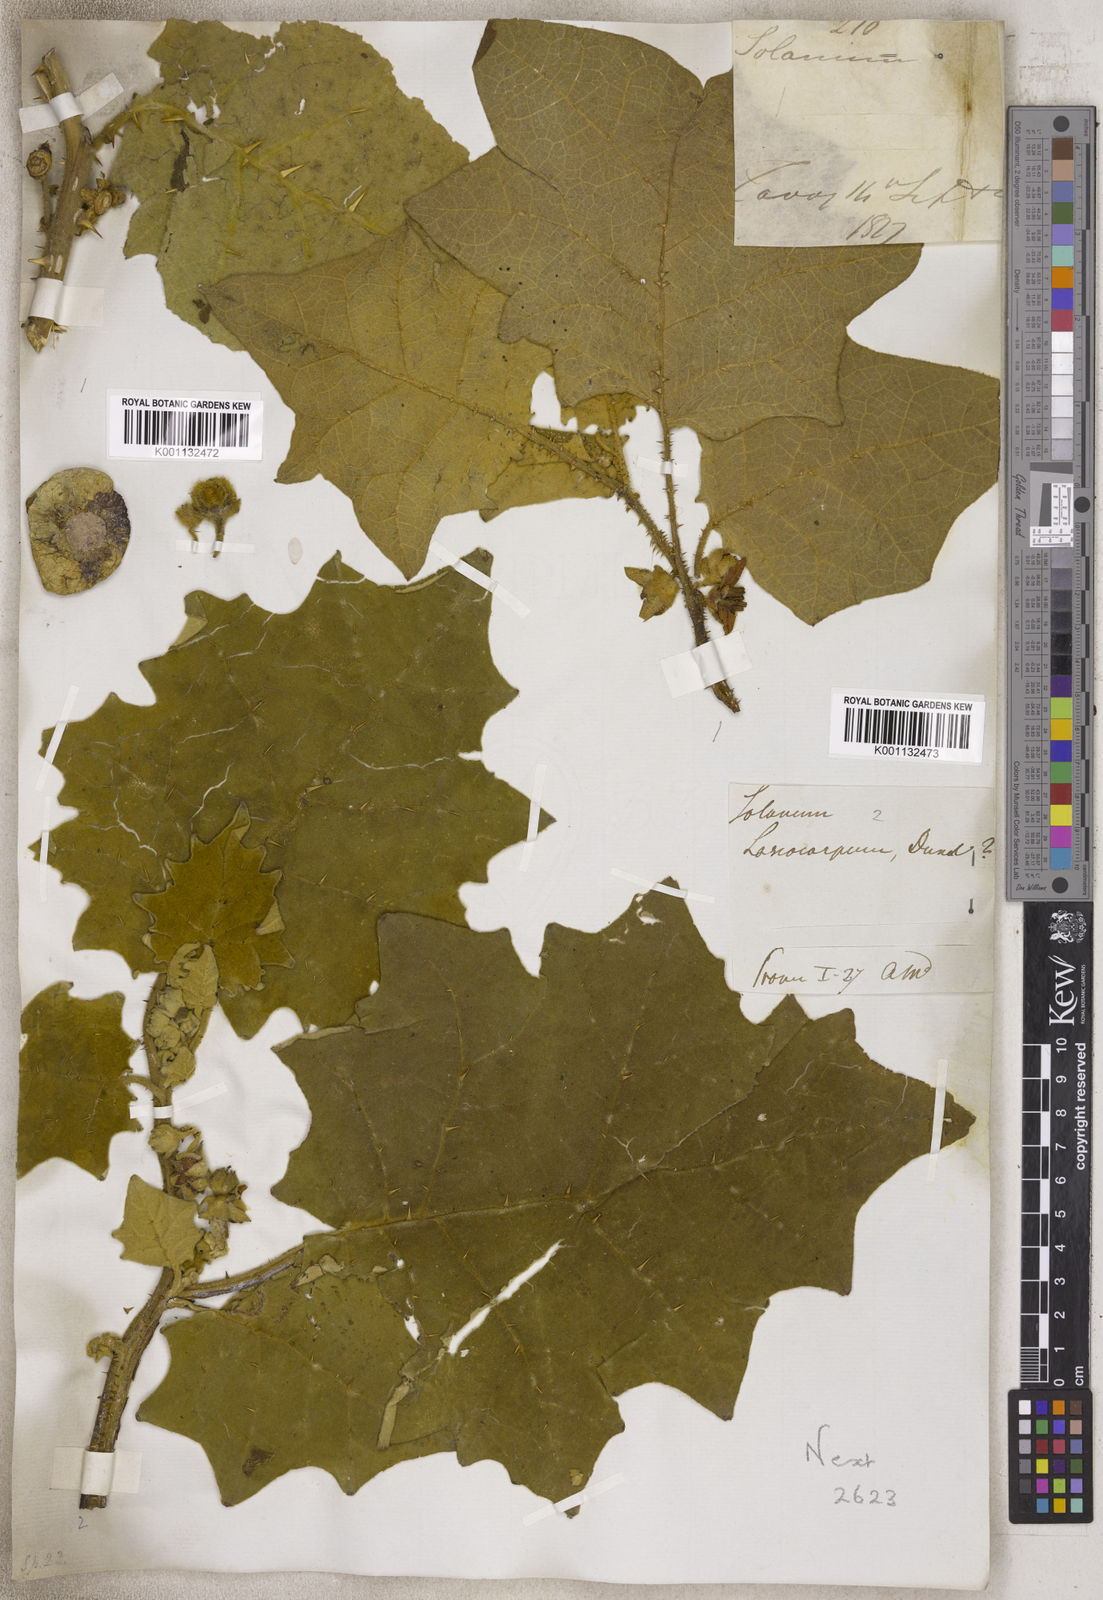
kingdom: Plantae
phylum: Tracheophyta
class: Magnoliopsida
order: Solanales
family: Solanaceae
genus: Solanum
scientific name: Solanum
